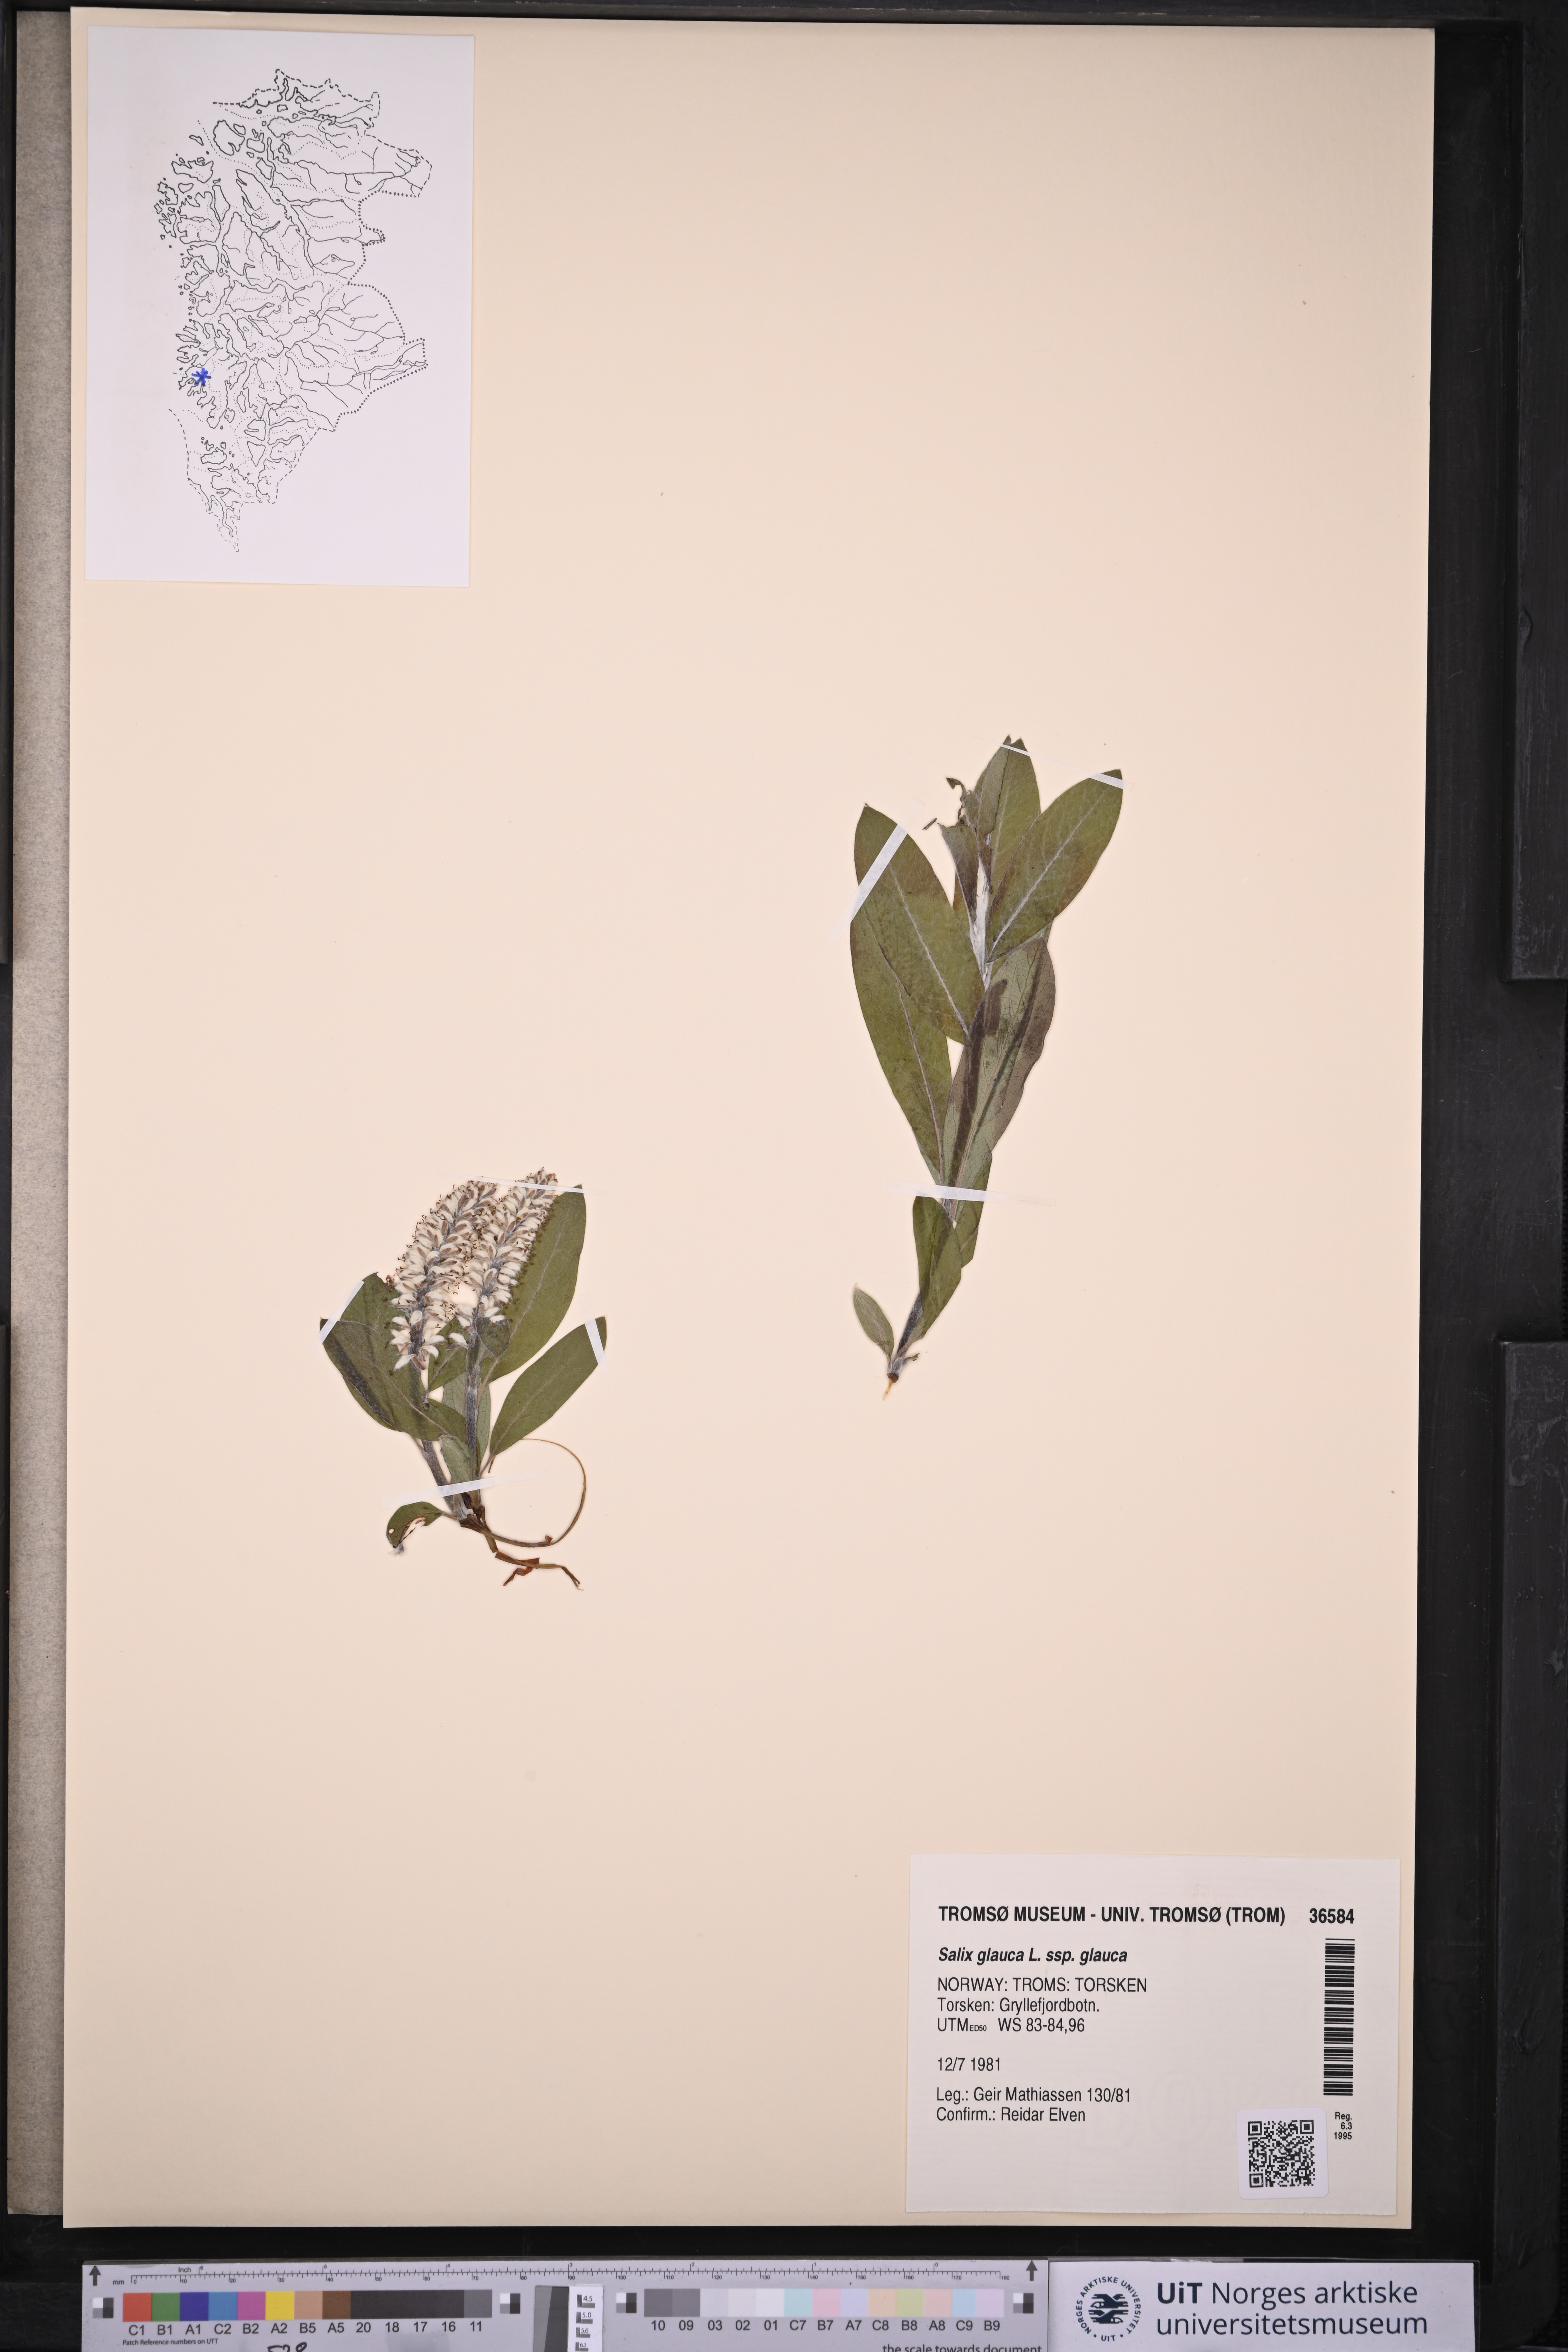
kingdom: Plantae
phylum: Tracheophyta
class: Magnoliopsida
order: Malpighiales
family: Salicaceae
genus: Salix
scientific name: Salix glauca
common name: Glaucous willow
